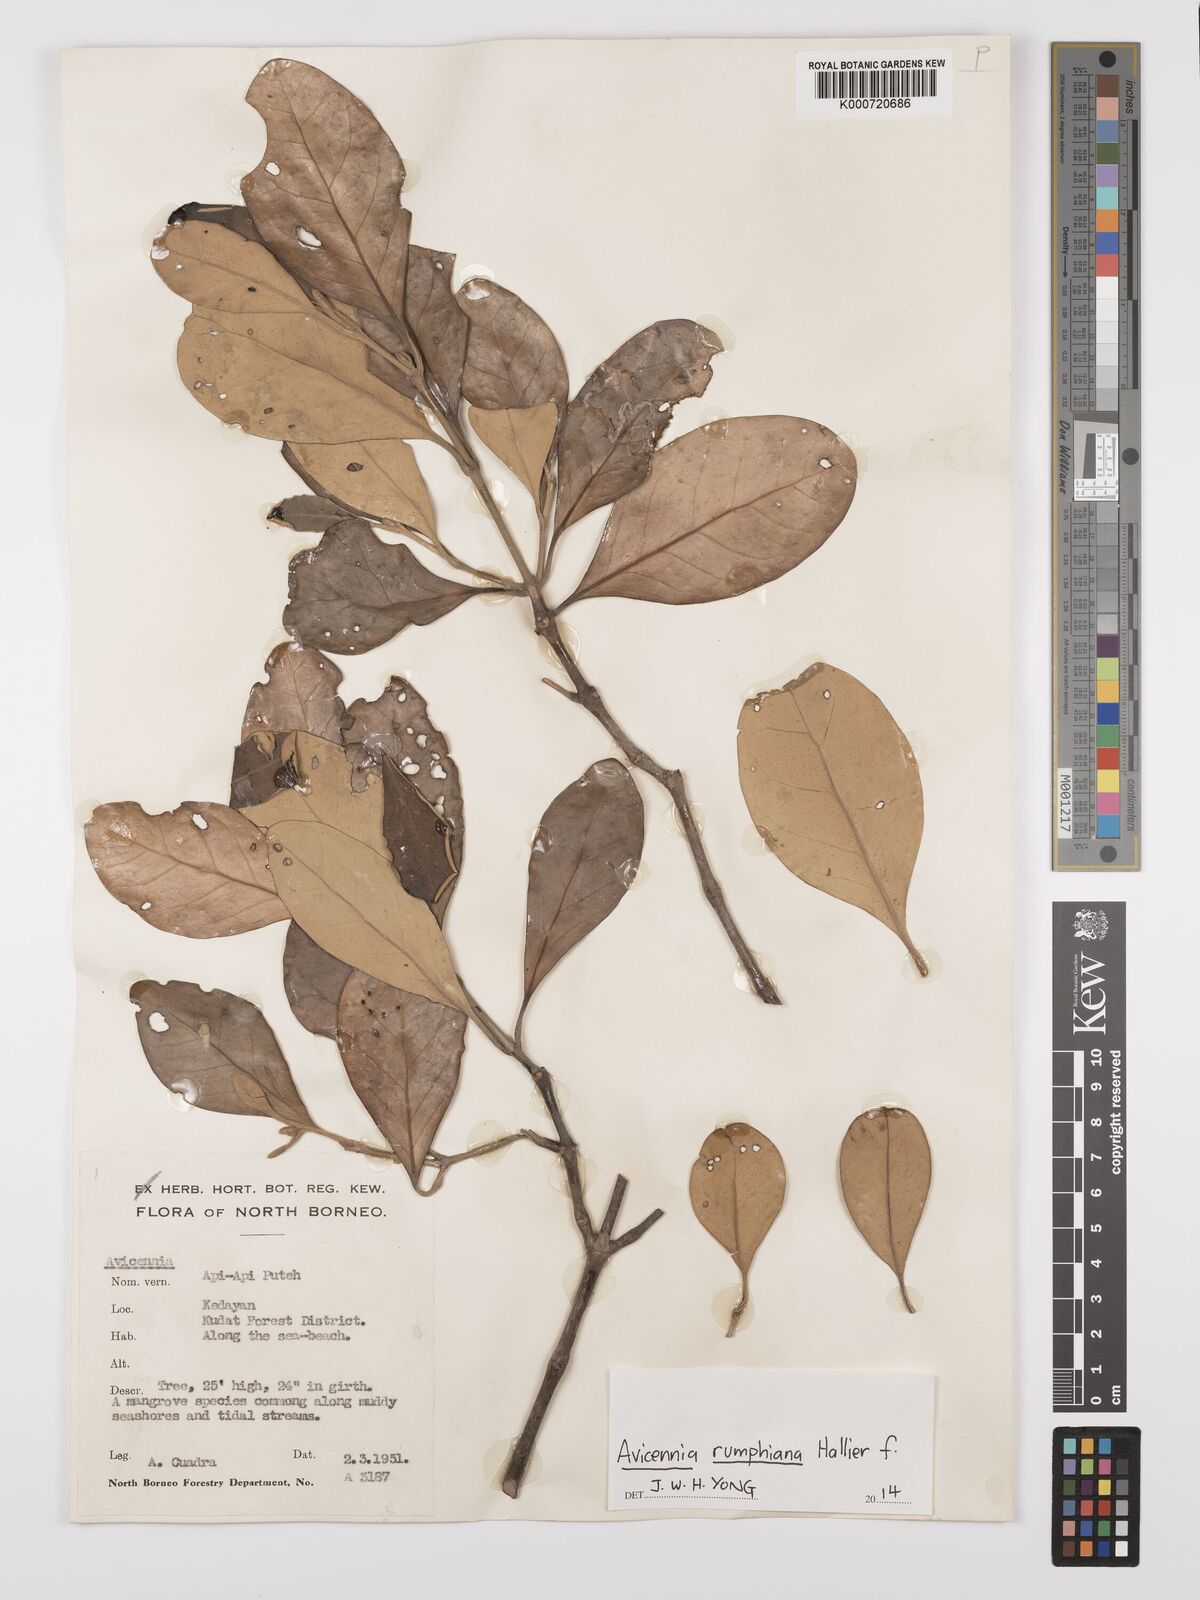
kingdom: Plantae
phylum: Tracheophyta
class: Magnoliopsida
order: Lamiales
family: Acanthaceae
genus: Avicennia
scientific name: Avicennia marina
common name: Gray mangrove
